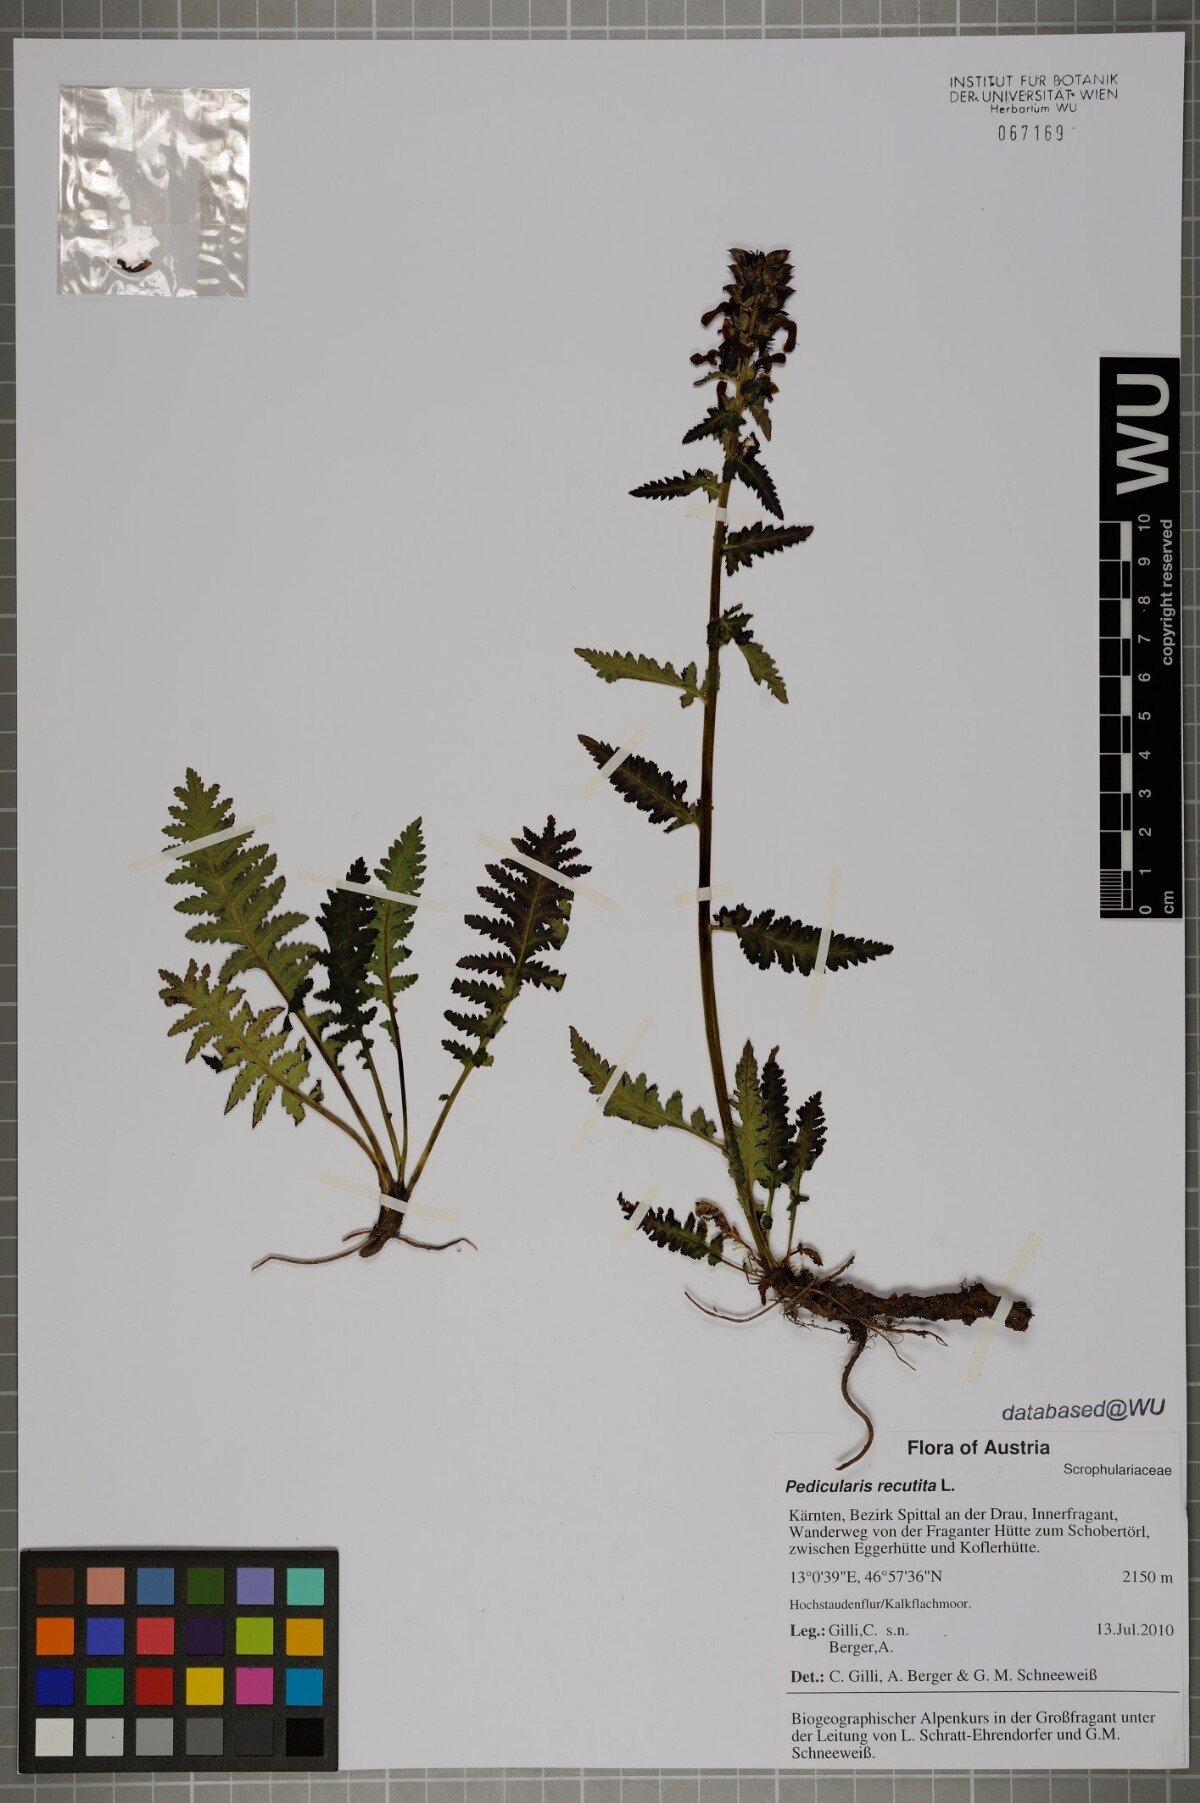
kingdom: Plantae
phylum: Tracheophyta
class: Magnoliopsida
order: Lamiales
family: Orobanchaceae
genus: Pedicularis
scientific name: Pedicularis recutita
